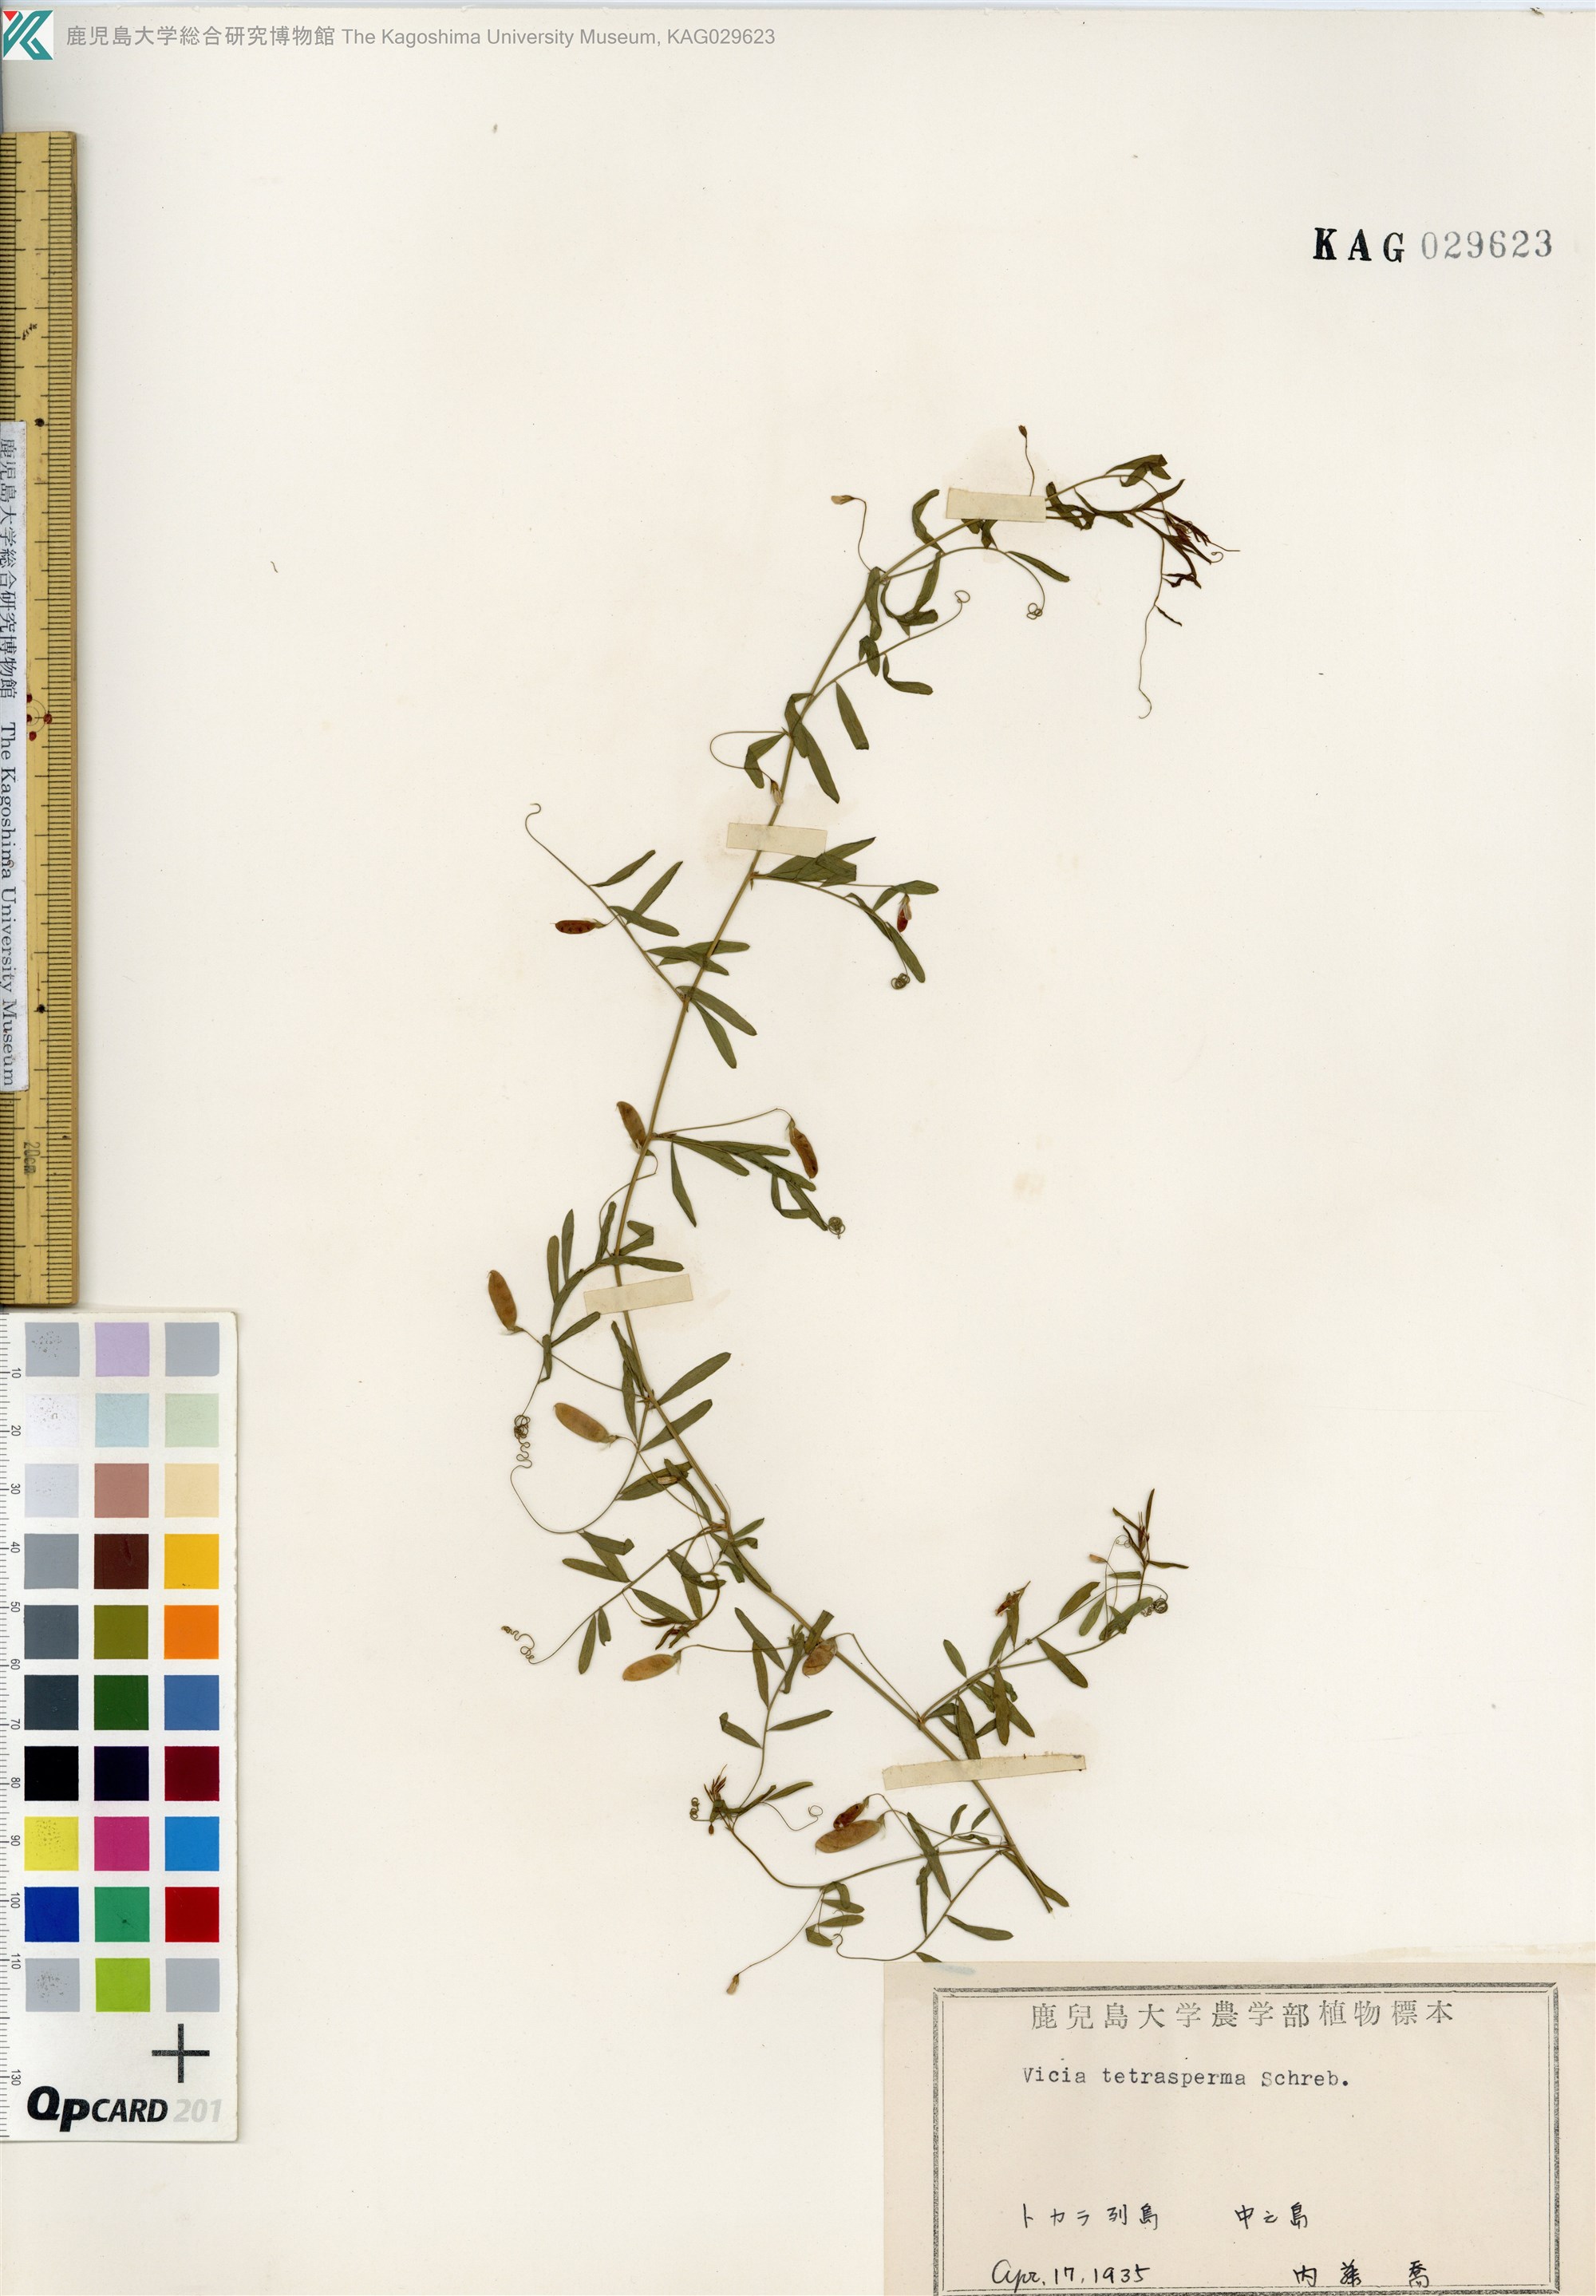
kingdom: Plantae
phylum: Tracheophyta
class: Magnoliopsida
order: Fabales
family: Fabaceae
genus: Vicia
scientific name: Vicia tetrasperma
